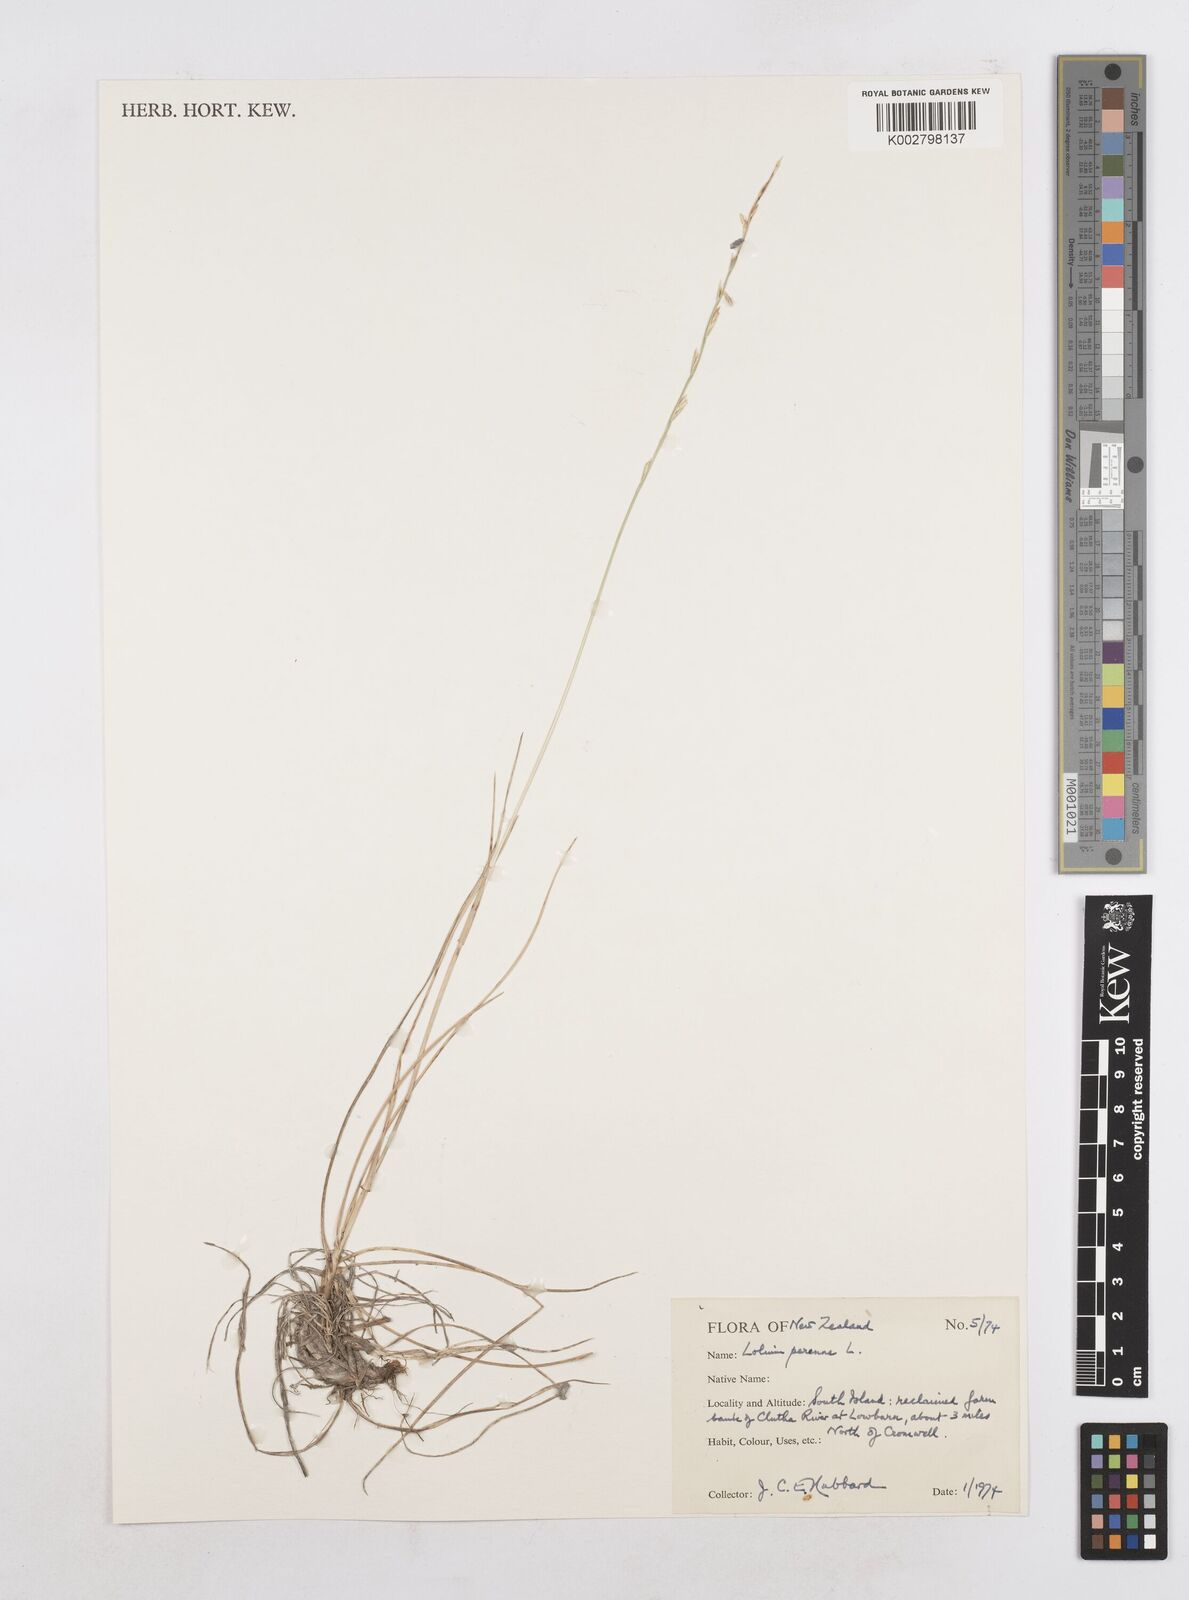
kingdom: Plantae
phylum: Tracheophyta
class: Liliopsida
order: Poales
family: Poaceae
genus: Lolium
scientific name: Lolium perenne
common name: Perennial ryegrass
